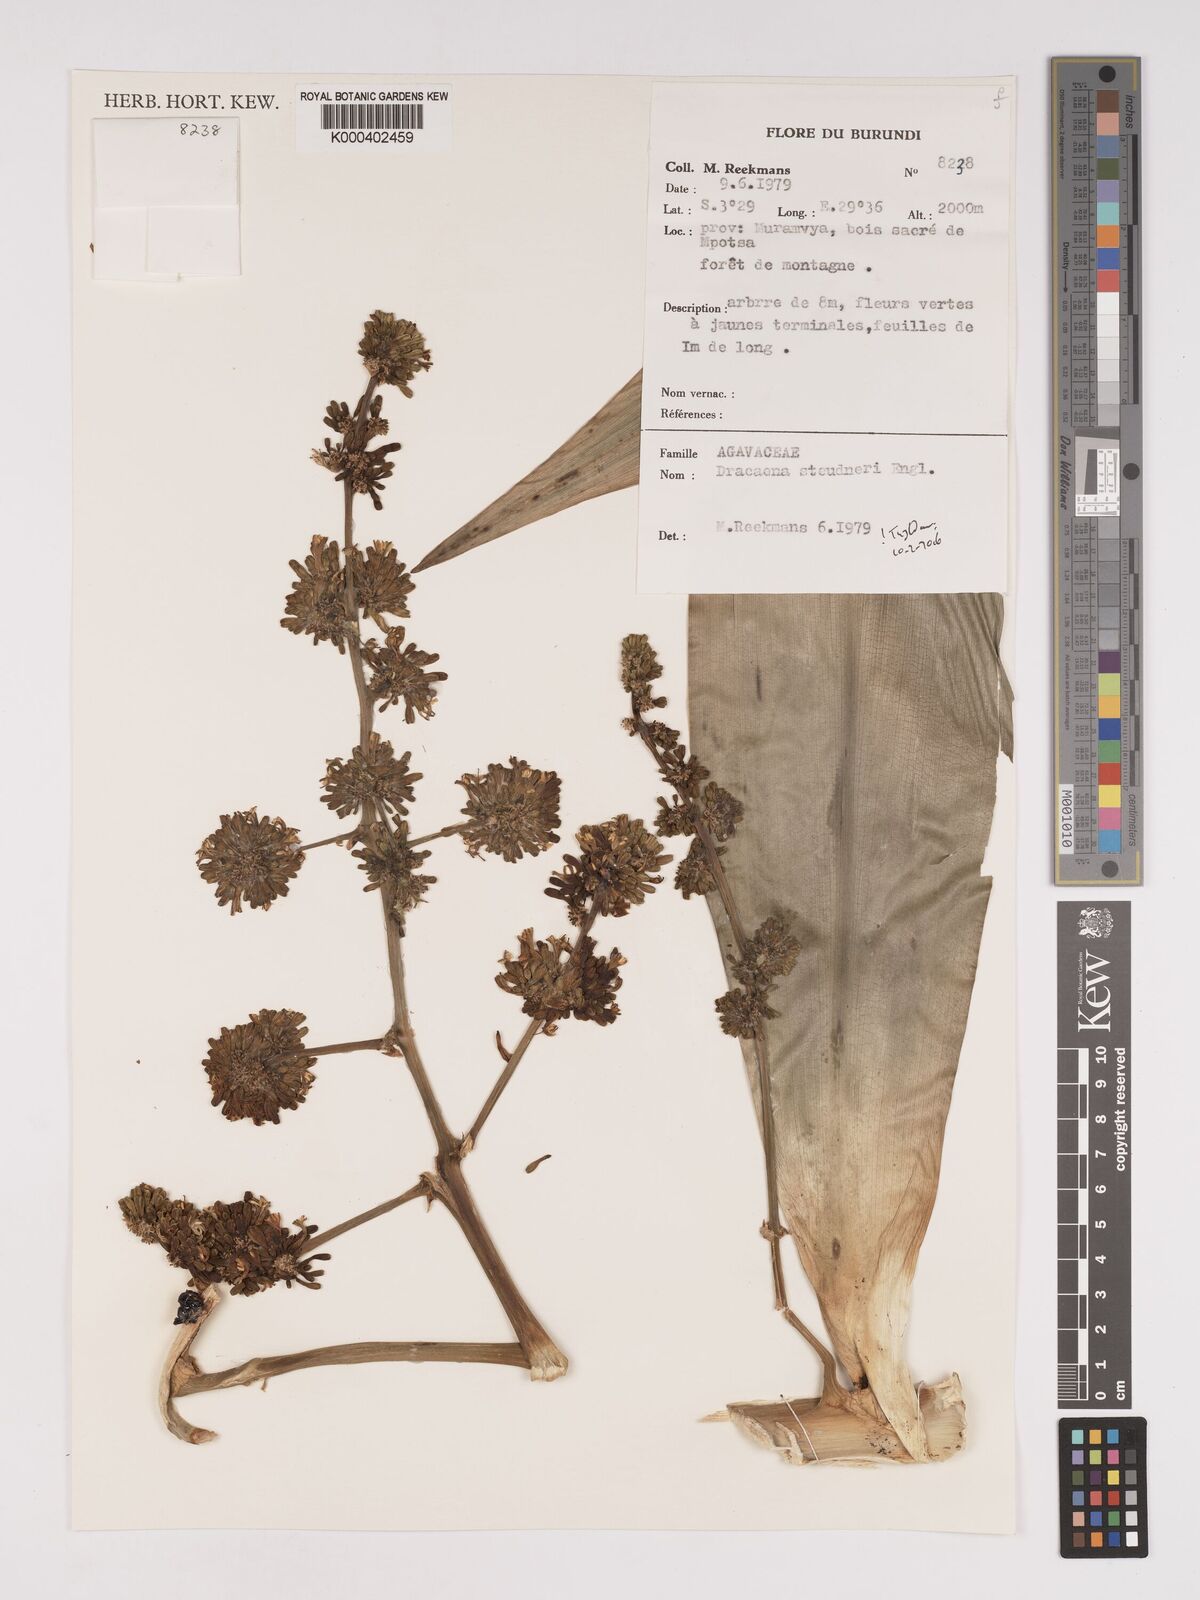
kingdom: Plantae
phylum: Tracheophyta
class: Liliopsida
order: Asparagales
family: Asparagaceae
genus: Dracaena
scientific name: Dracaena steudneri
